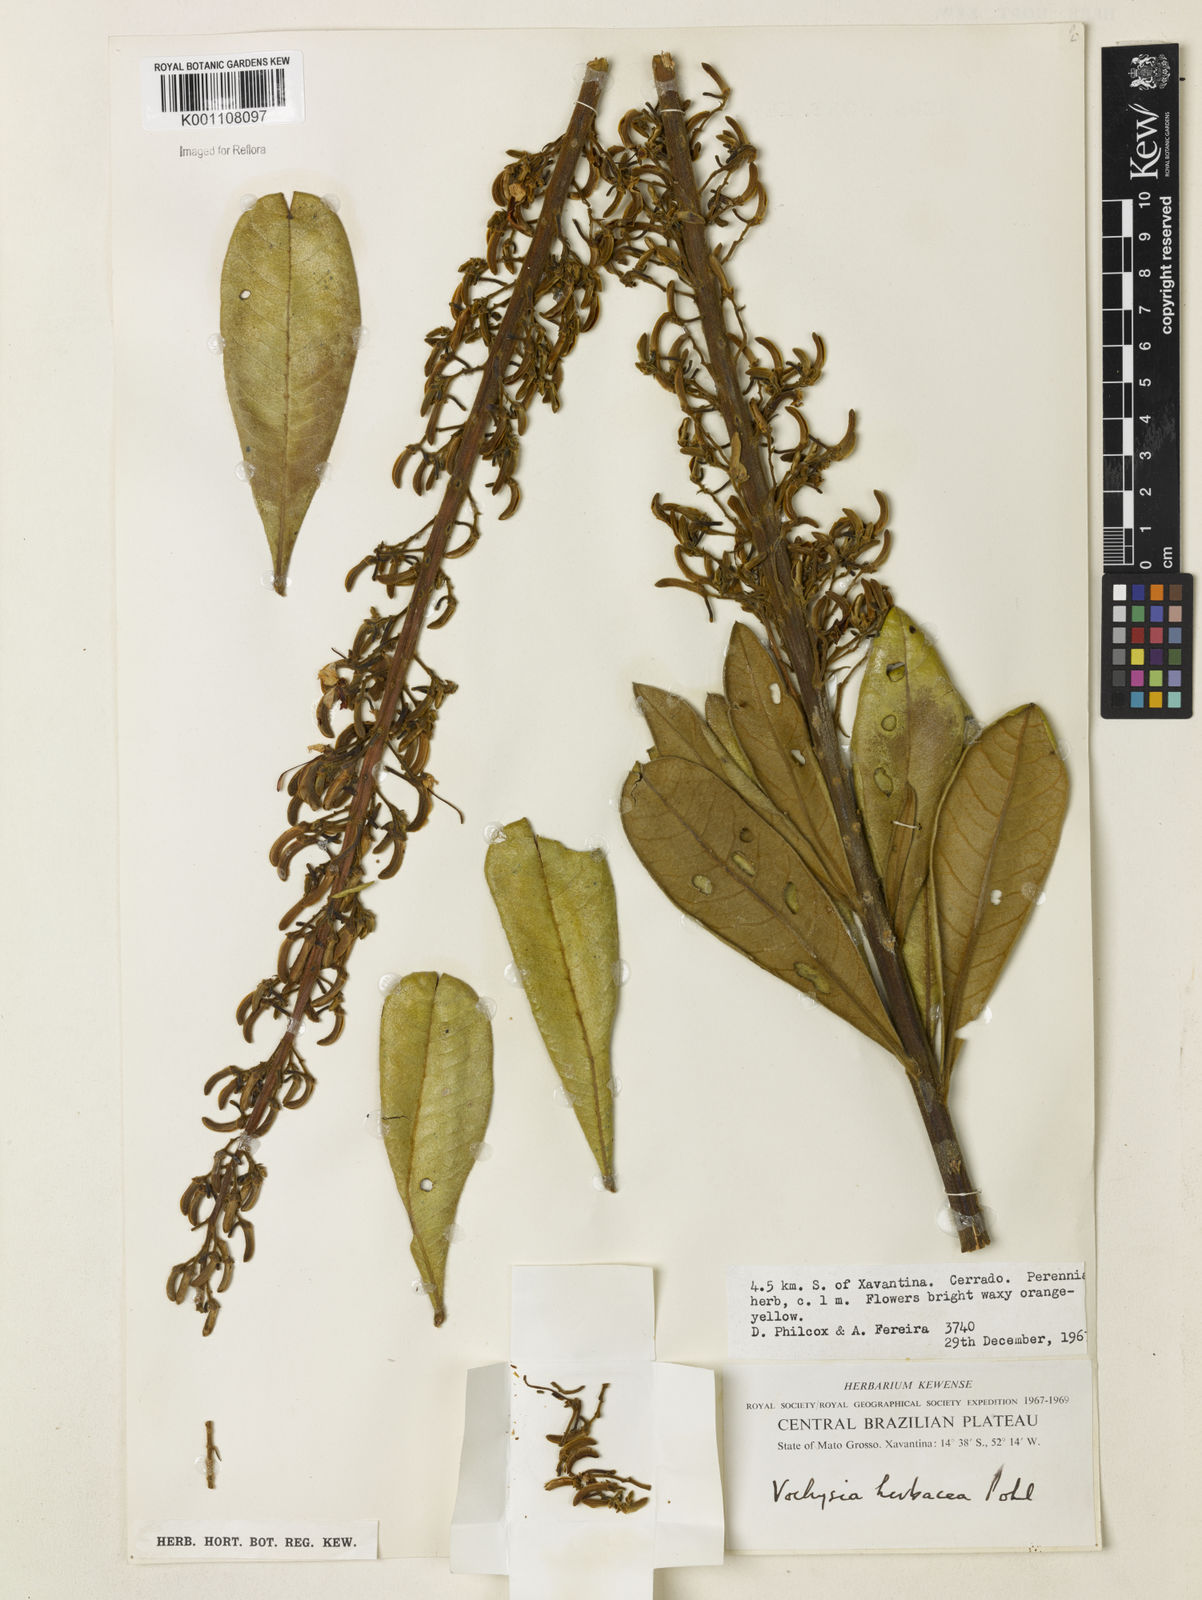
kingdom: Plantae
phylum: Tracheophyta
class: Magnoliopsida
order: Myrtales
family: Vochysiaceae
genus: Vochysia
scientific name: Vochysia herbacea
